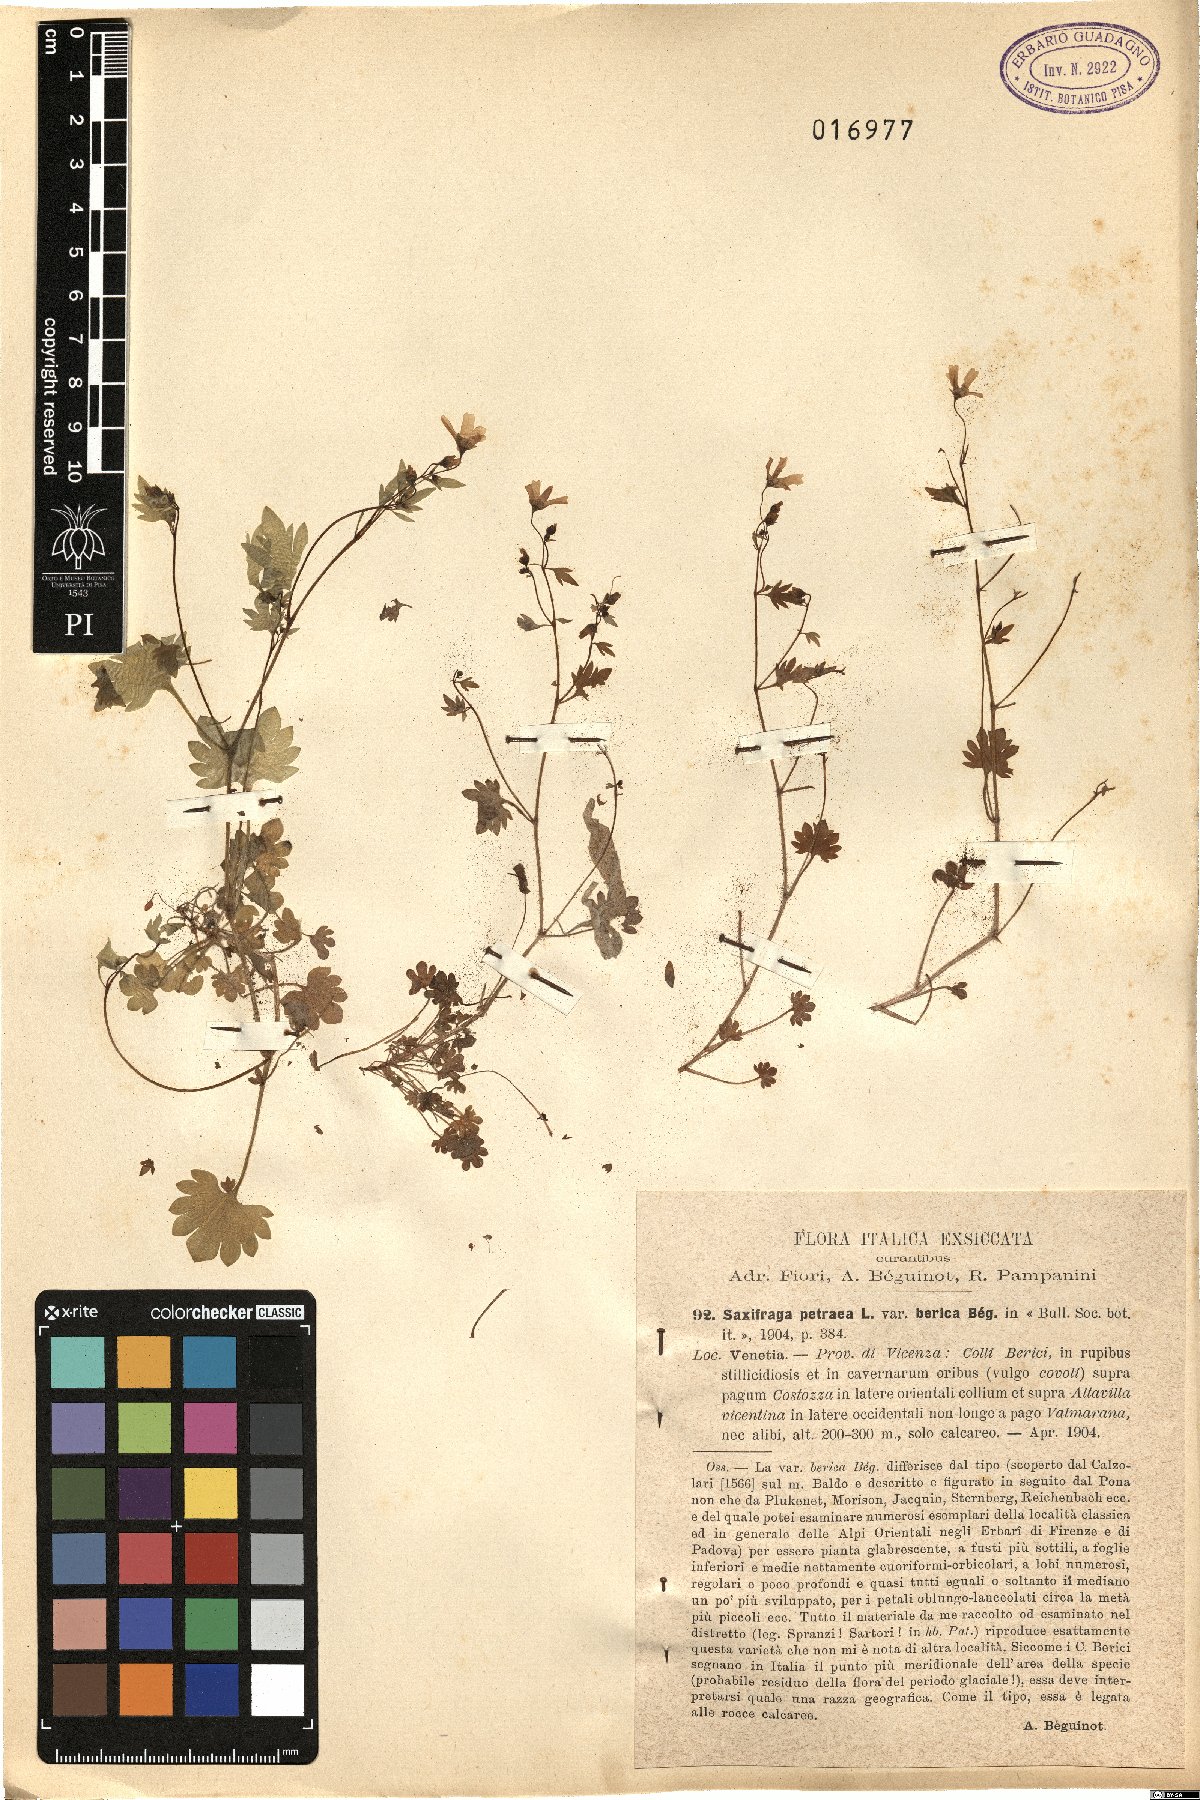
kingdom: Plantae
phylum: Tracheophyta
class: Magnoliopsida
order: Saxifragales
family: Saxifragaceae
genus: Saxifraga
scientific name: Saxifraga berica
